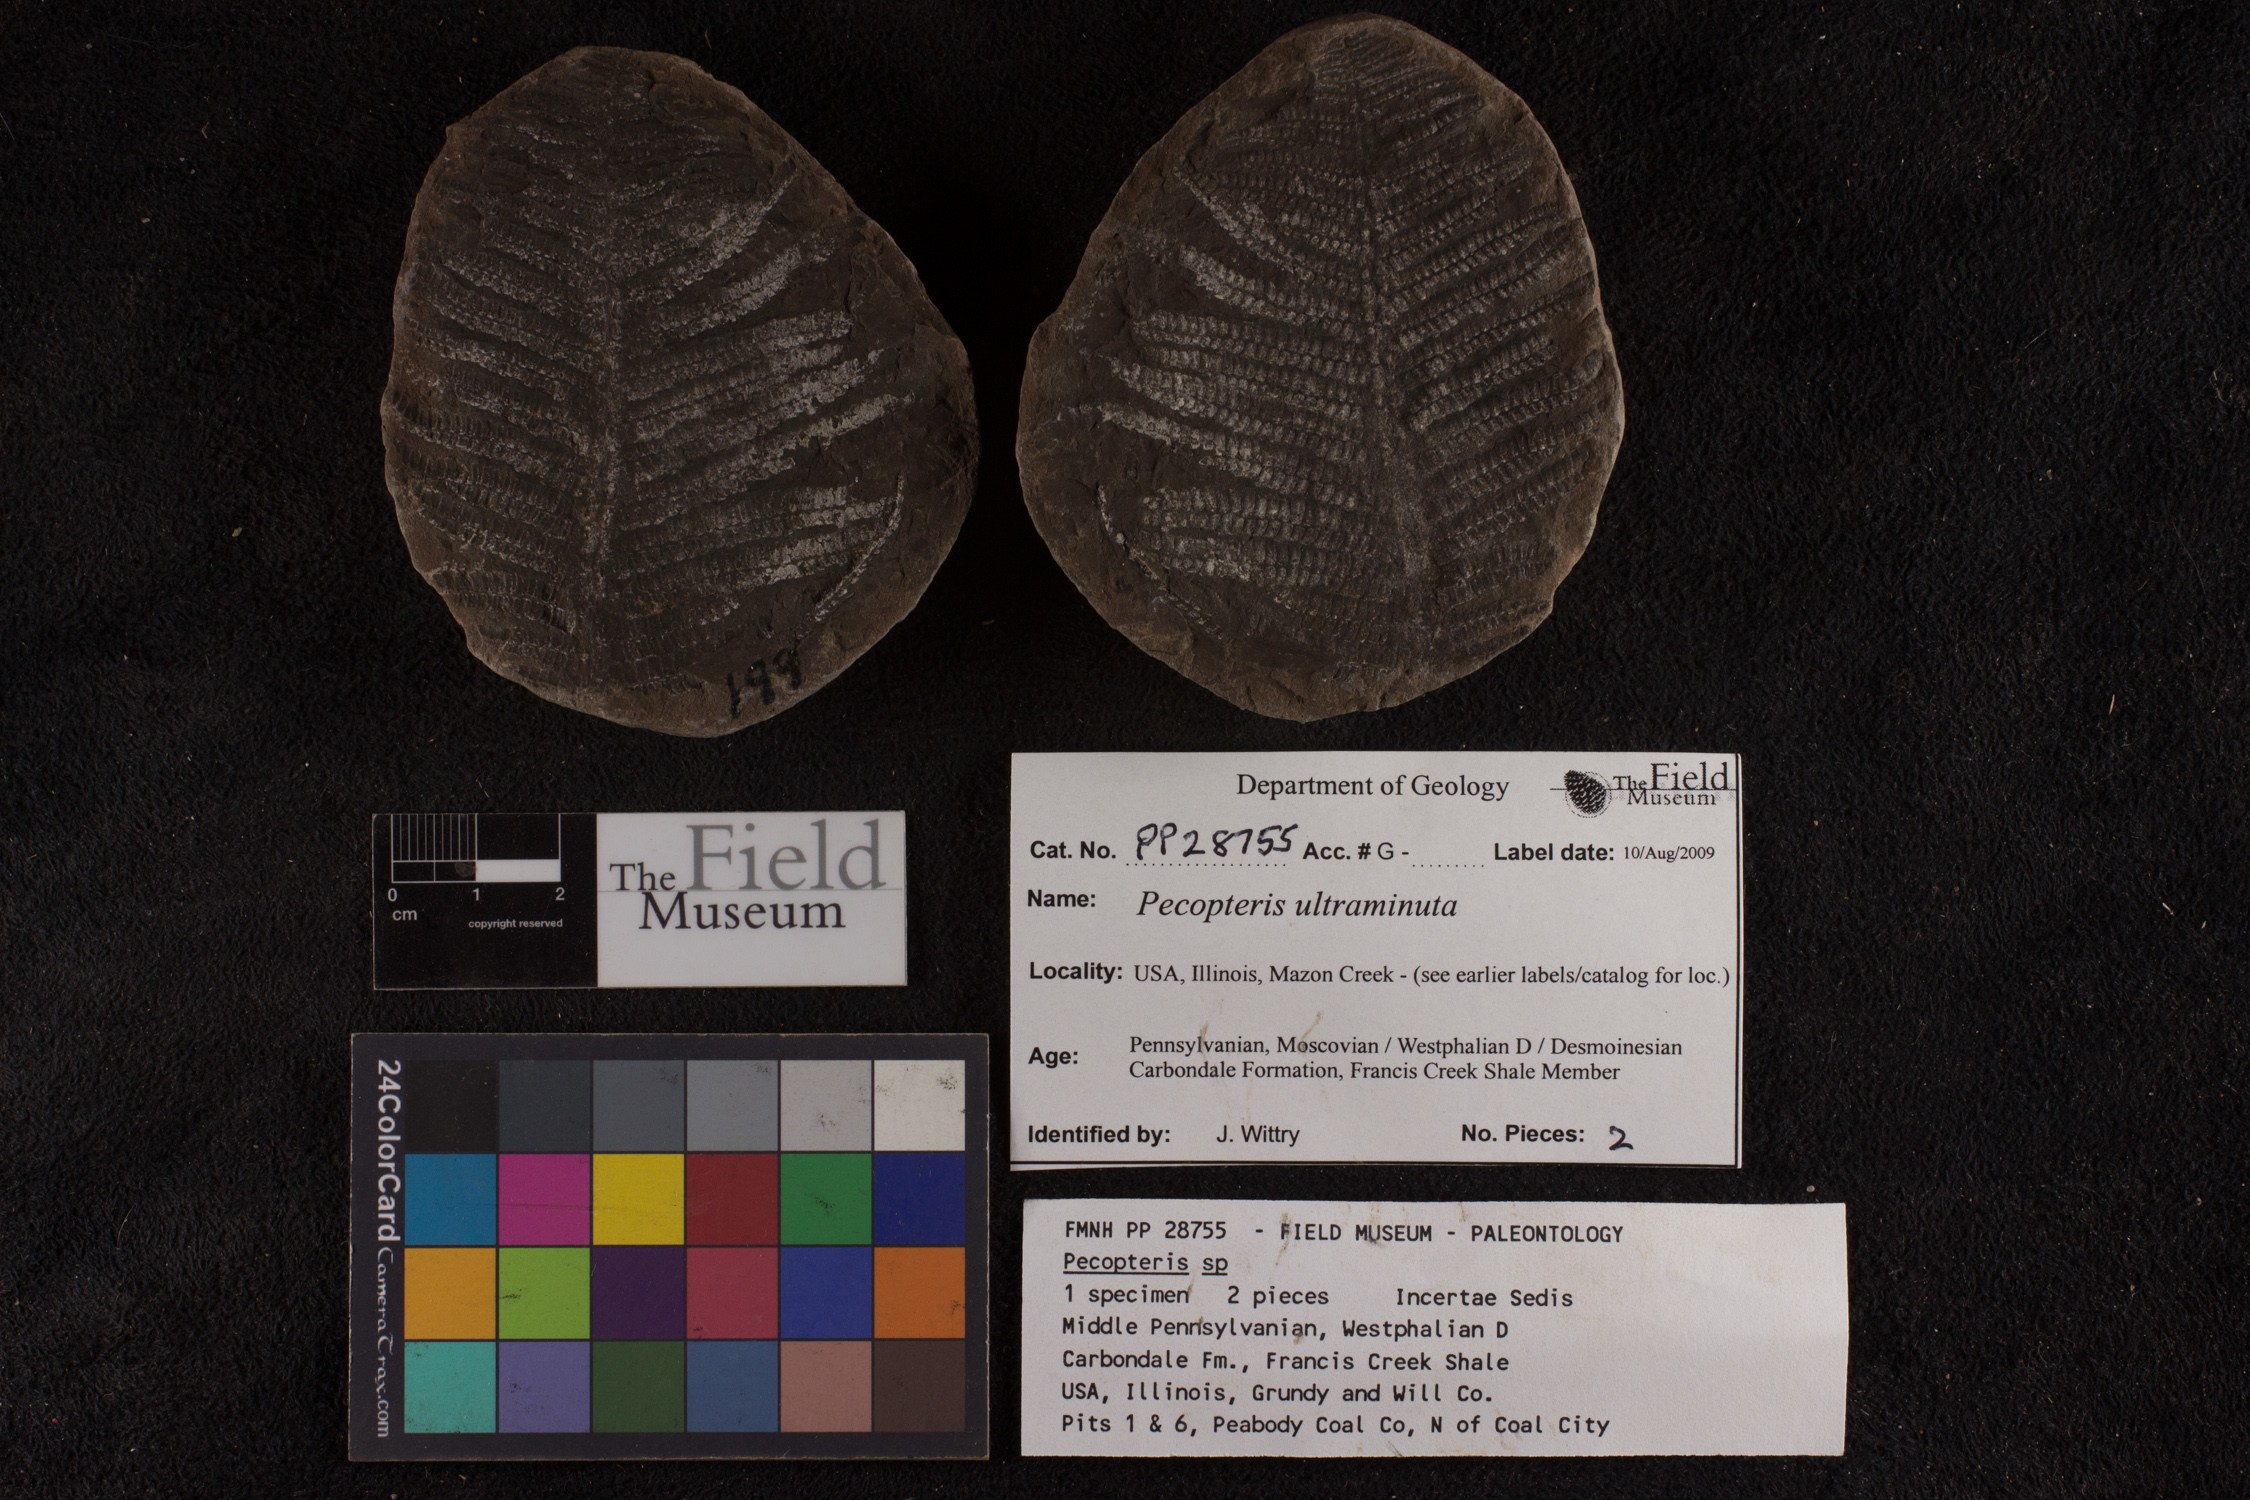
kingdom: Plantae
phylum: Tracheophyta
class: Polypodiopsida
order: Marattiales
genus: Cyathocarpus
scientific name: Cyathocarpus
